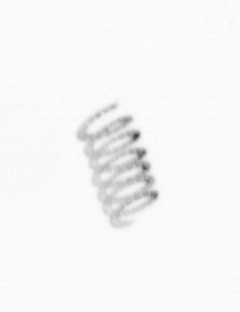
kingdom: Chromista
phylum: Ochrophyta
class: Bacillariophyceae
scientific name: Bacillariophyceae
